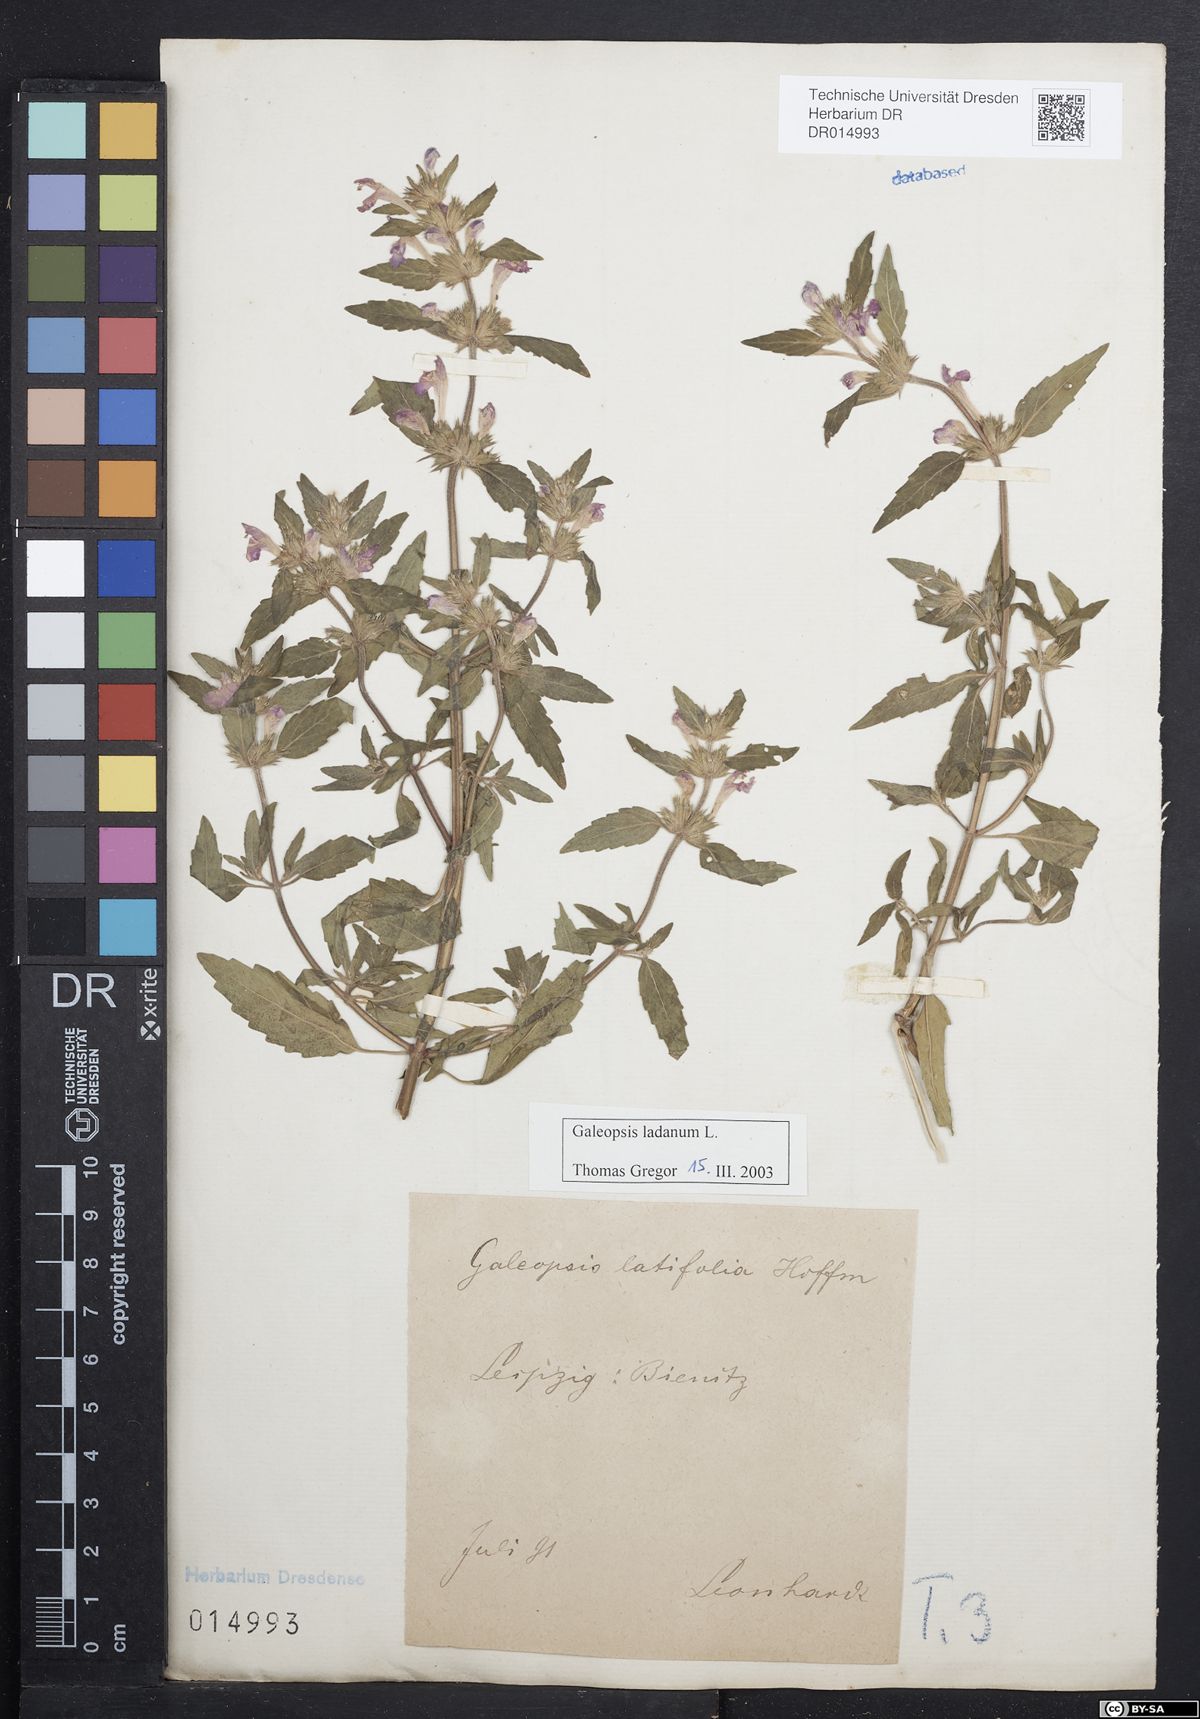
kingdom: Plantae
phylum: Tracheophyta
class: Magnoliopsida
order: Lamiales
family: Lamiaceae
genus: Galeopsis
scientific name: Galeopsis ladanum
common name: Broad-leaved hemp-nettle
